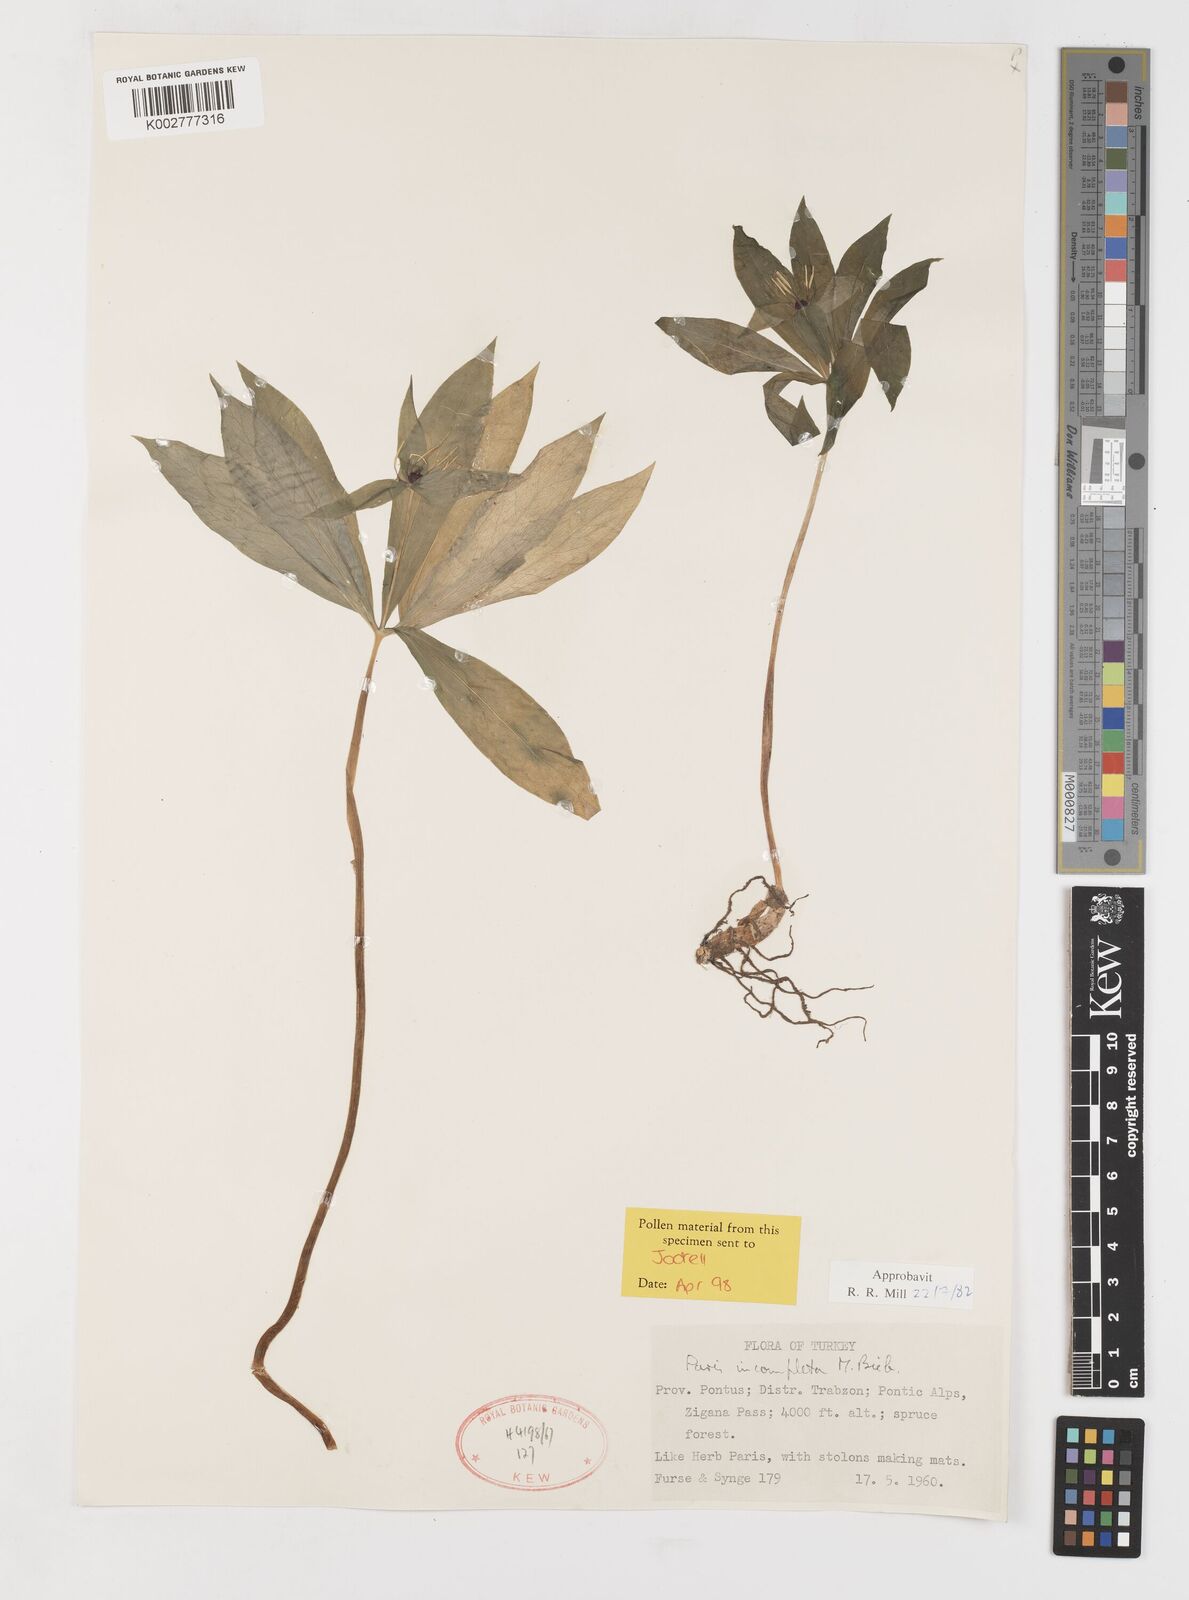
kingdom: Plantae
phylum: Tracheophyta
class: Liliopsida
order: Liliales
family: Melanthiaceae
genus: Paris
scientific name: Paris incompleta
